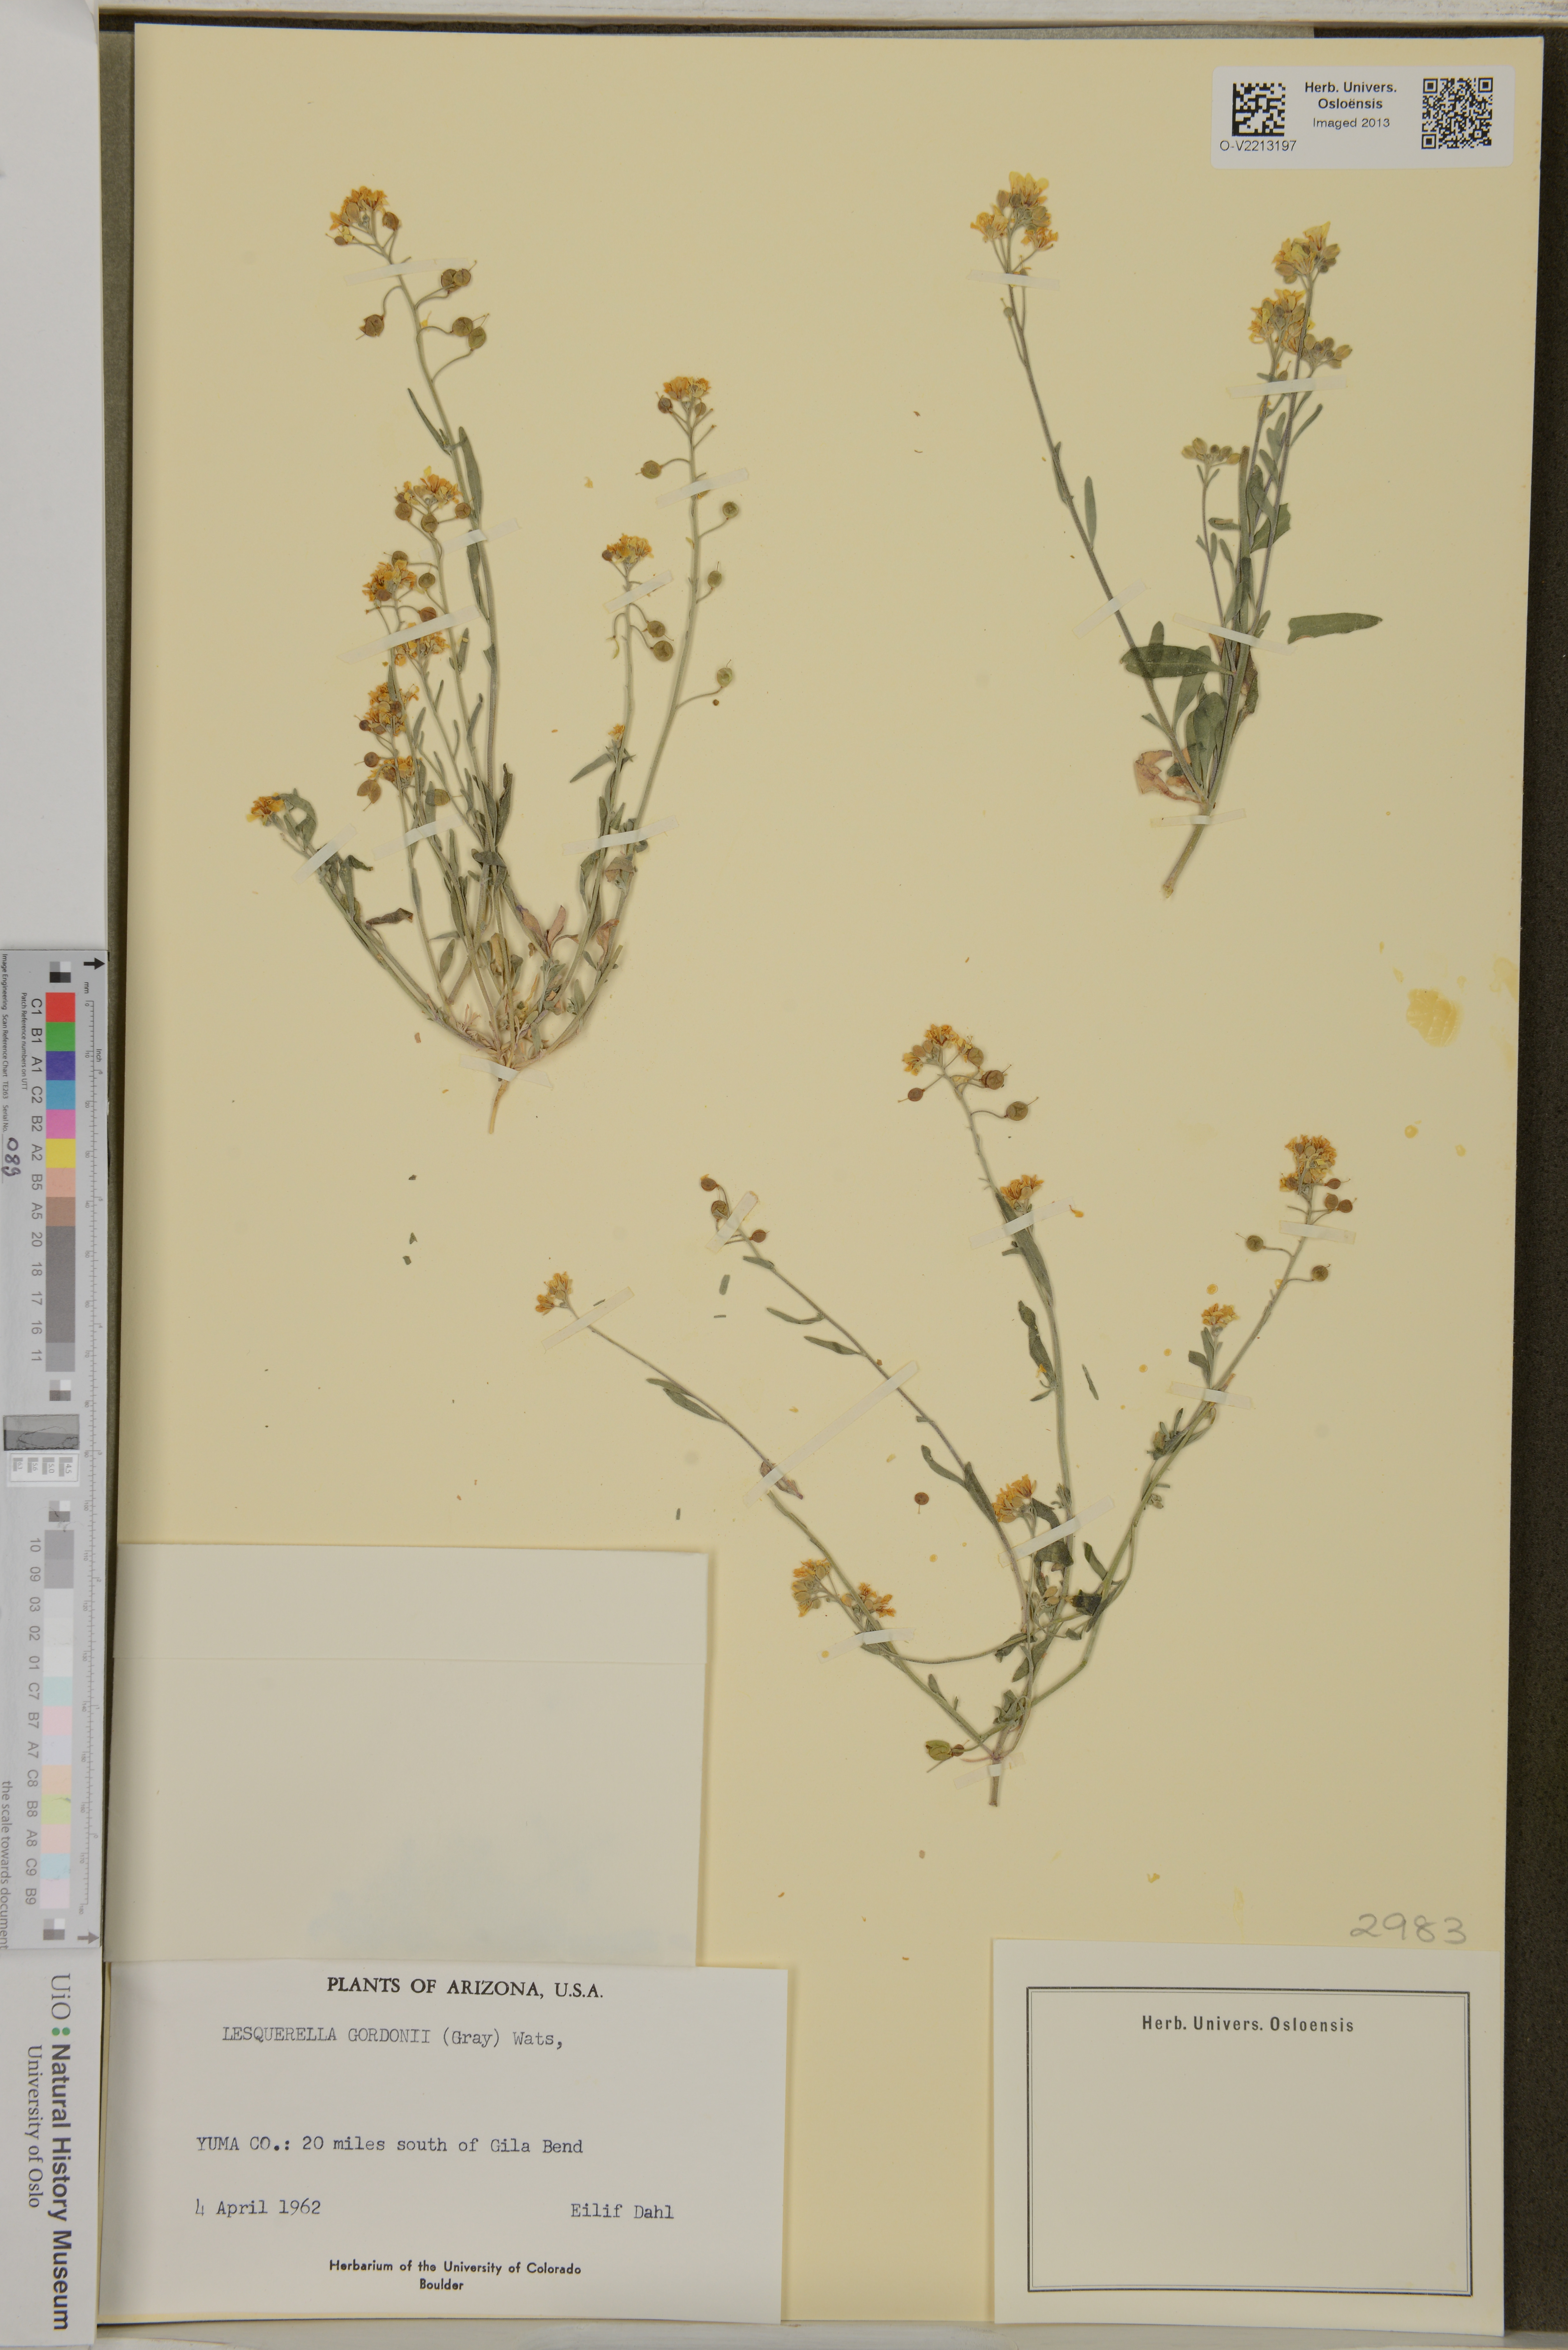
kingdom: Plantae
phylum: Tracheophyta
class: Magnoliopsida
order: Brassicales
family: Brassicaceae
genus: Physaria
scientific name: Physaria gordonii
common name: Gordon's bladderpod
